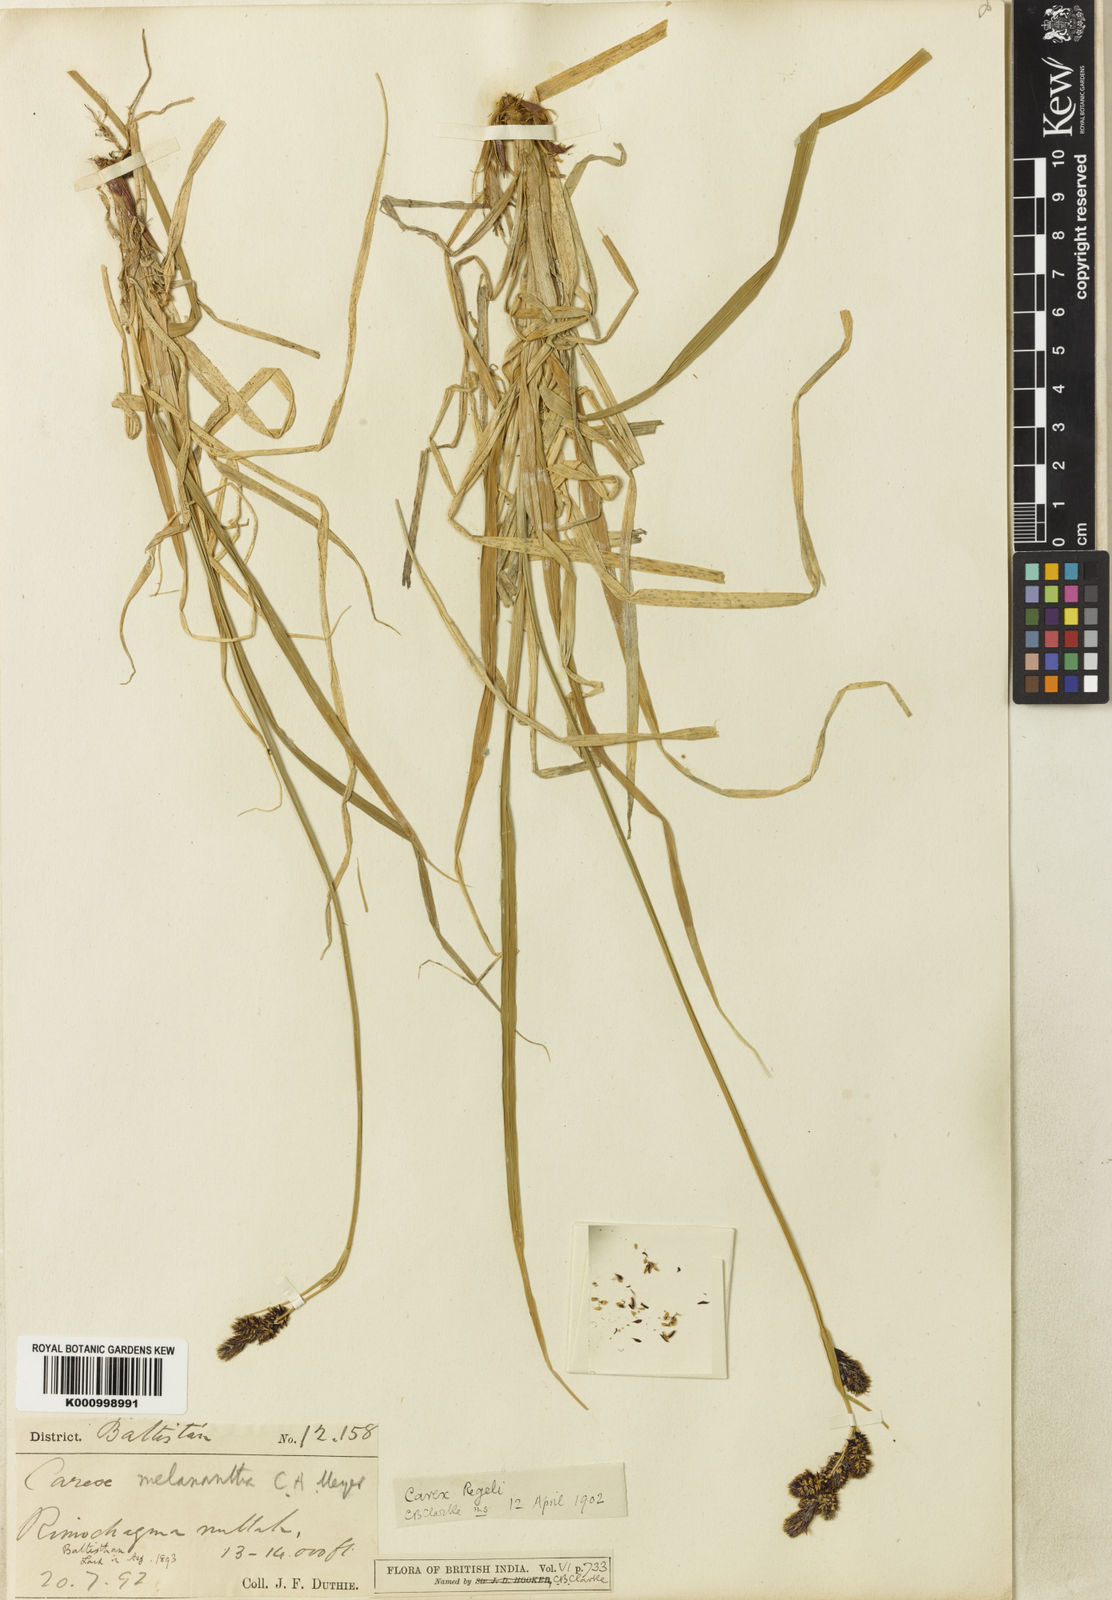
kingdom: Plantae
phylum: Tracheophyta
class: Liliopsida
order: Poales
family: Cyperaceae
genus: Carex
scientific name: Carex melanantha
